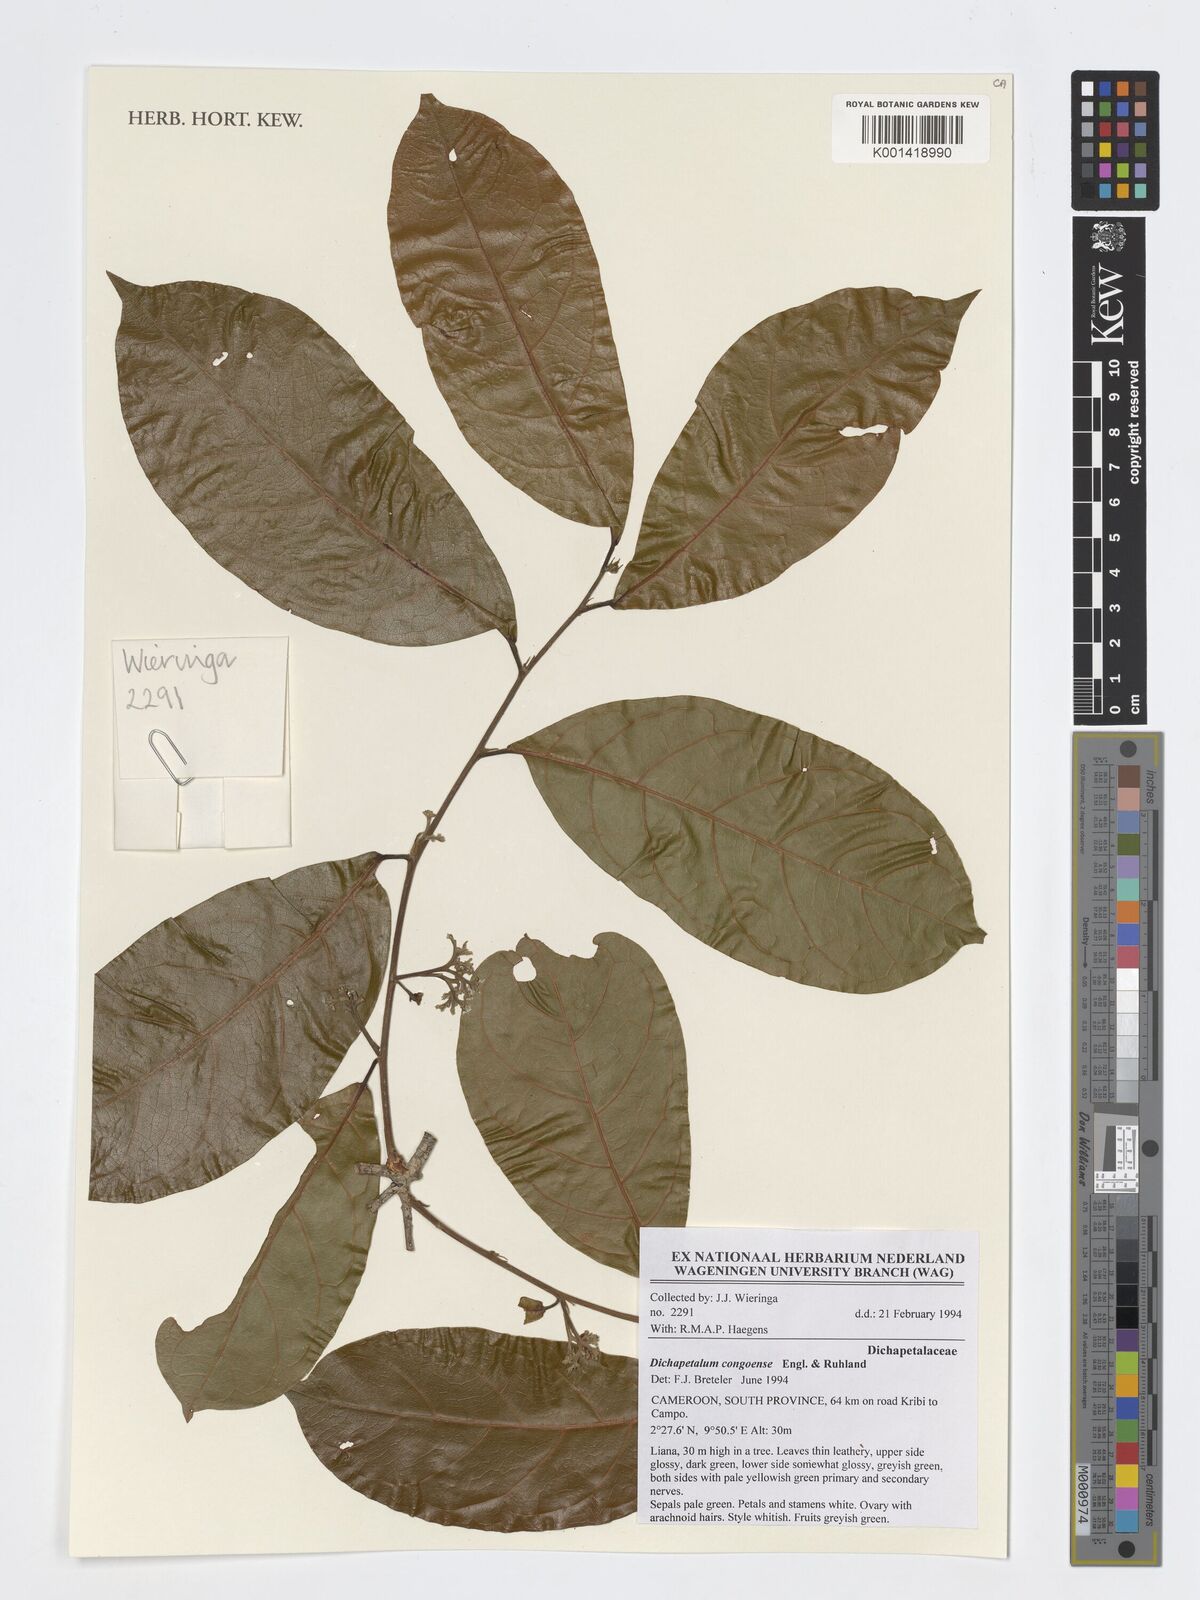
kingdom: Plantae
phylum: Tracheophyta
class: Magnoliopsida
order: Malpighiales
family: Dichapetalaceae
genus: Dichapetalum
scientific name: Dichapetalum congoense
